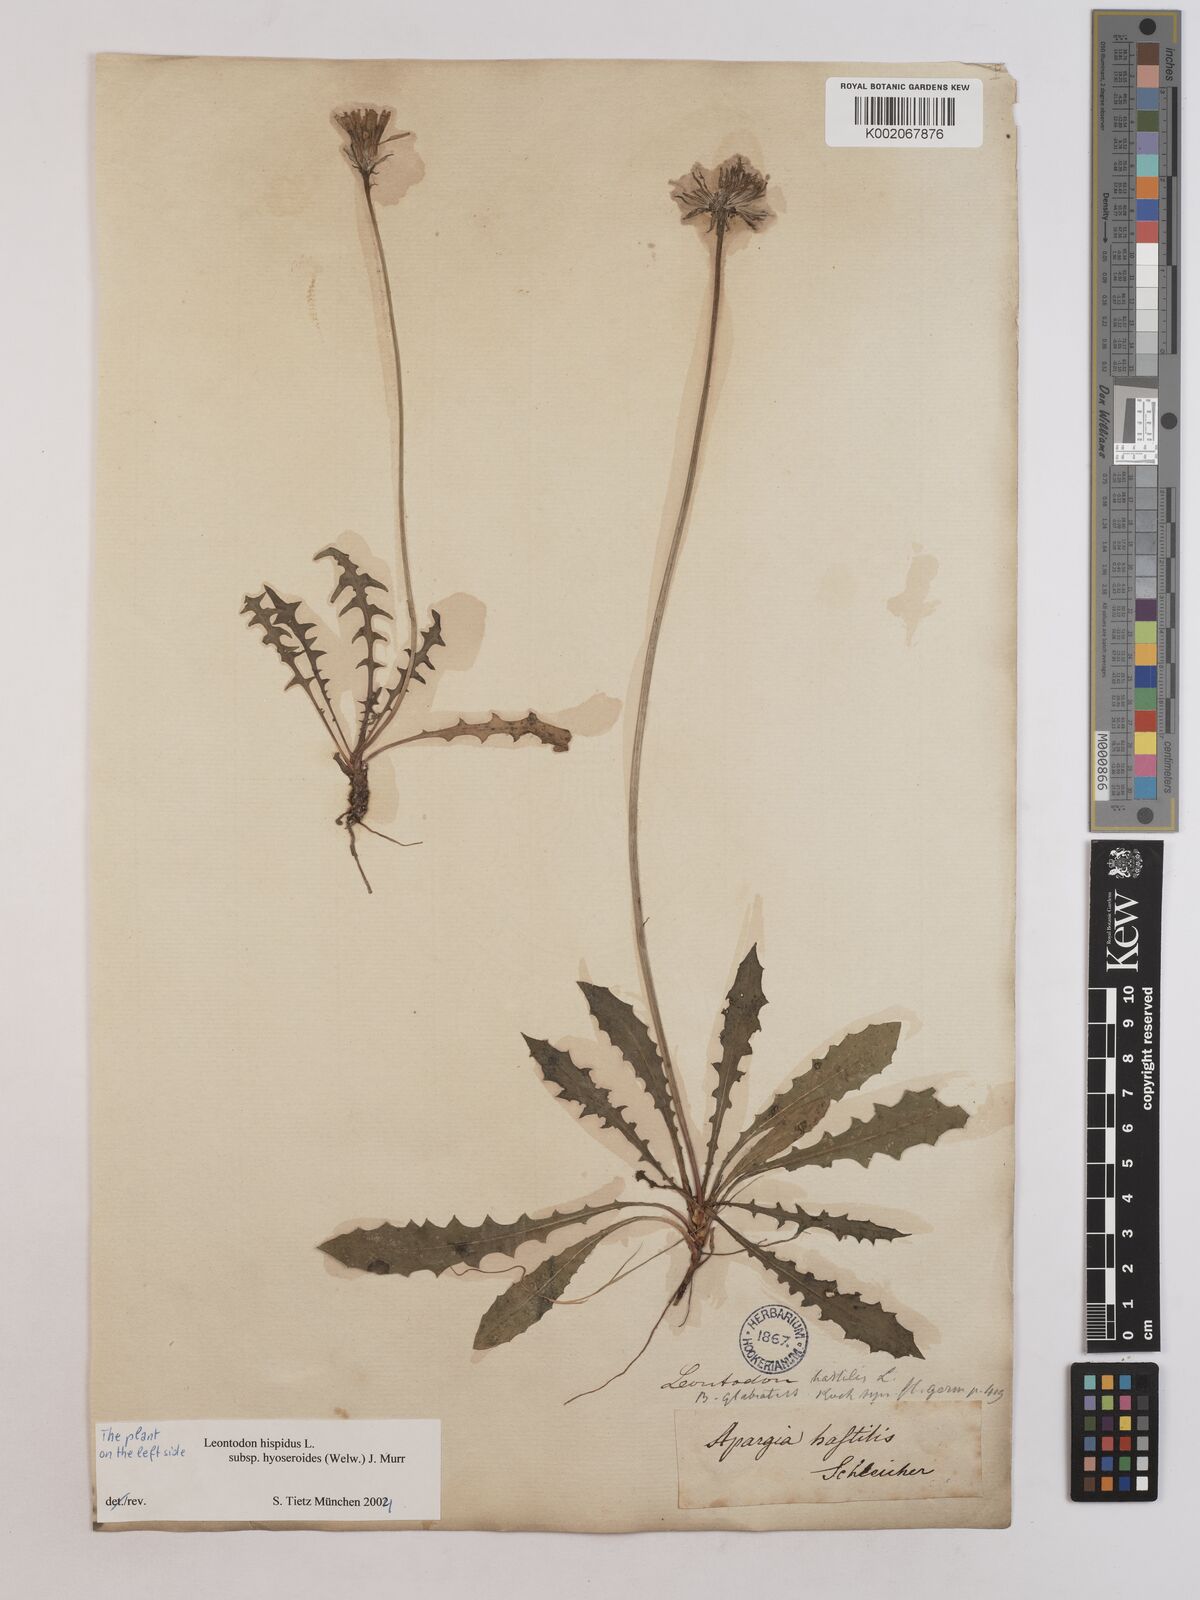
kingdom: Plantae
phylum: Tracheophyta
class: Magnoliopsida
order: Asterales
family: Asteraceae
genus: Leontodon
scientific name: Leontodon hispidus
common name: Rough hawkbit
